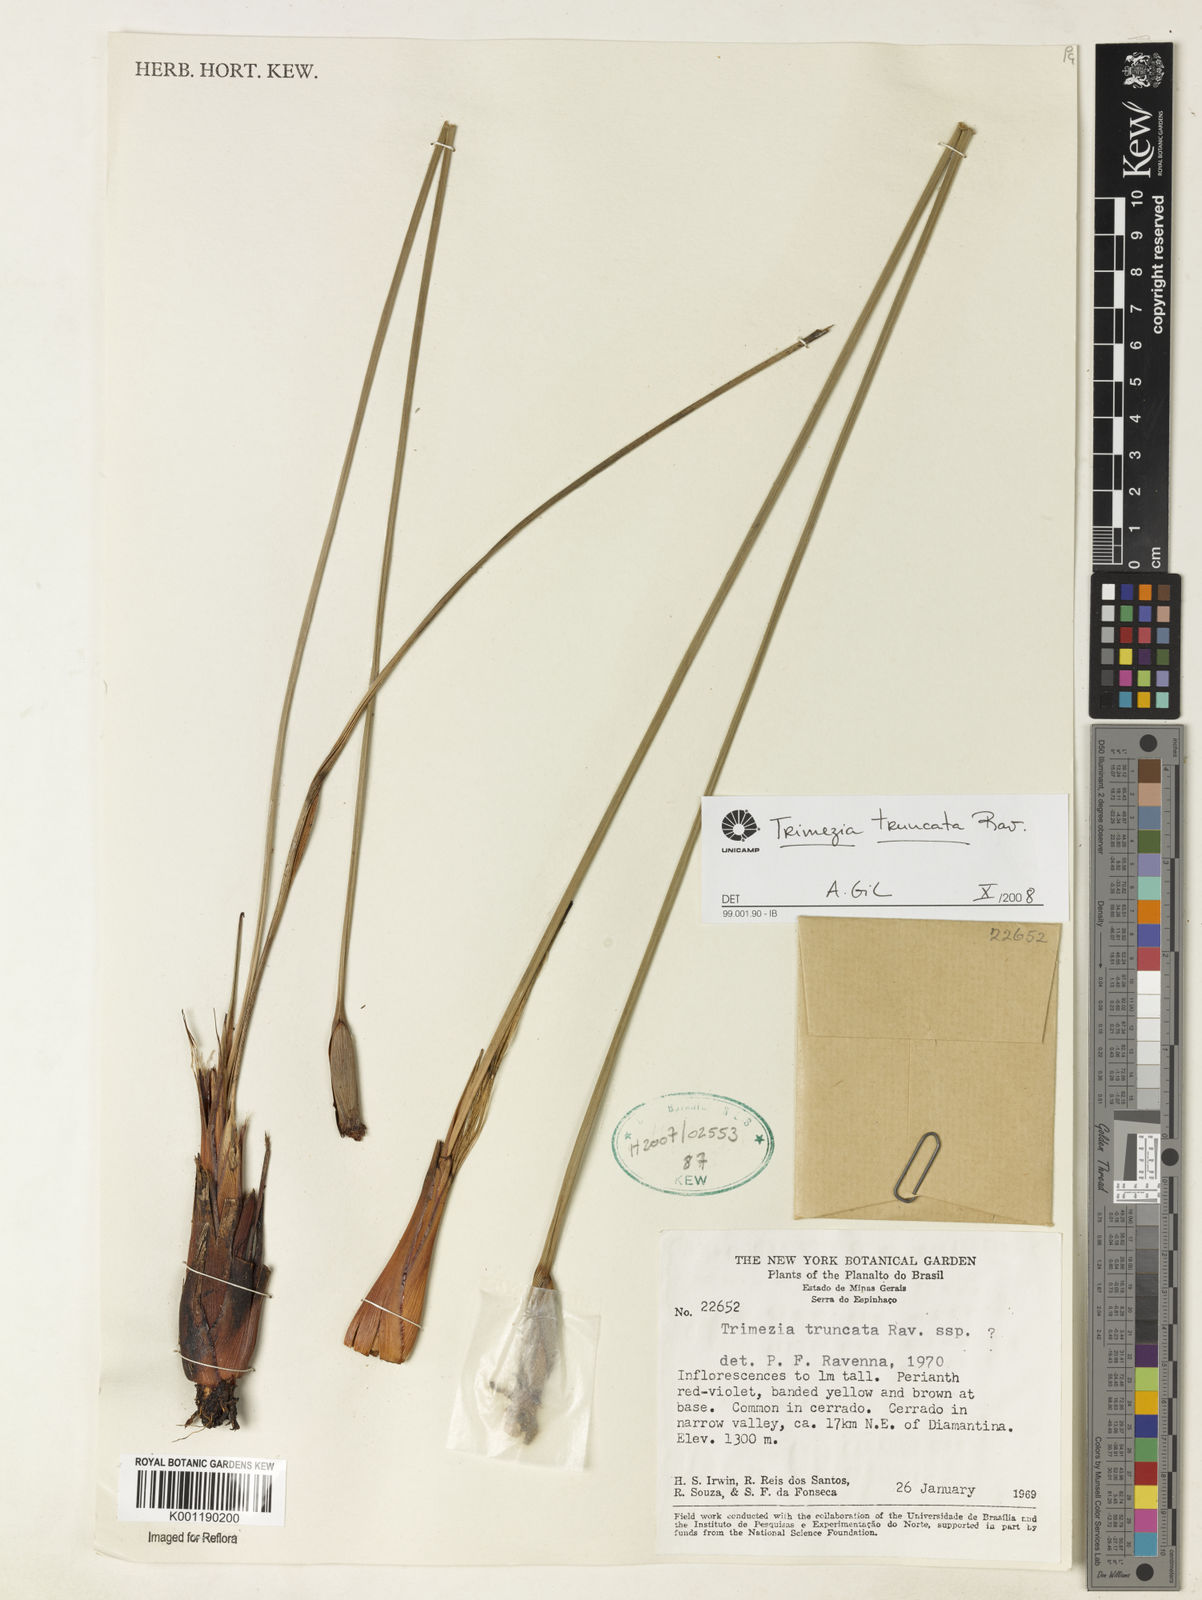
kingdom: Plantae
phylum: Tracheophyta
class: Liliopsida
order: Asparagales
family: Iridaceae
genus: Trimezia
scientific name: Trimezia truncata
